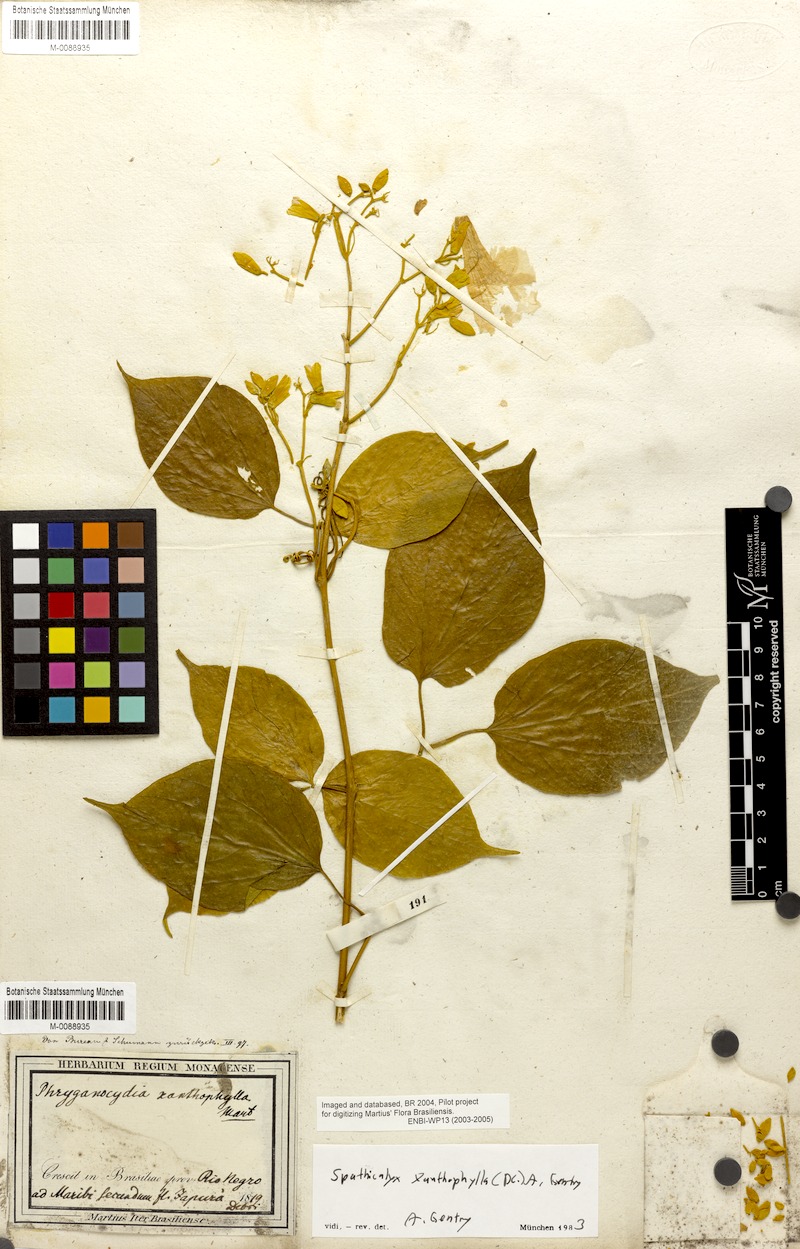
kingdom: Plantae
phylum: Tracheophyta
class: Magnoliopsida
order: Lamiales
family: Bignoniaceae
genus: Tanaecium
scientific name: Tanaecium xanthophyllum
